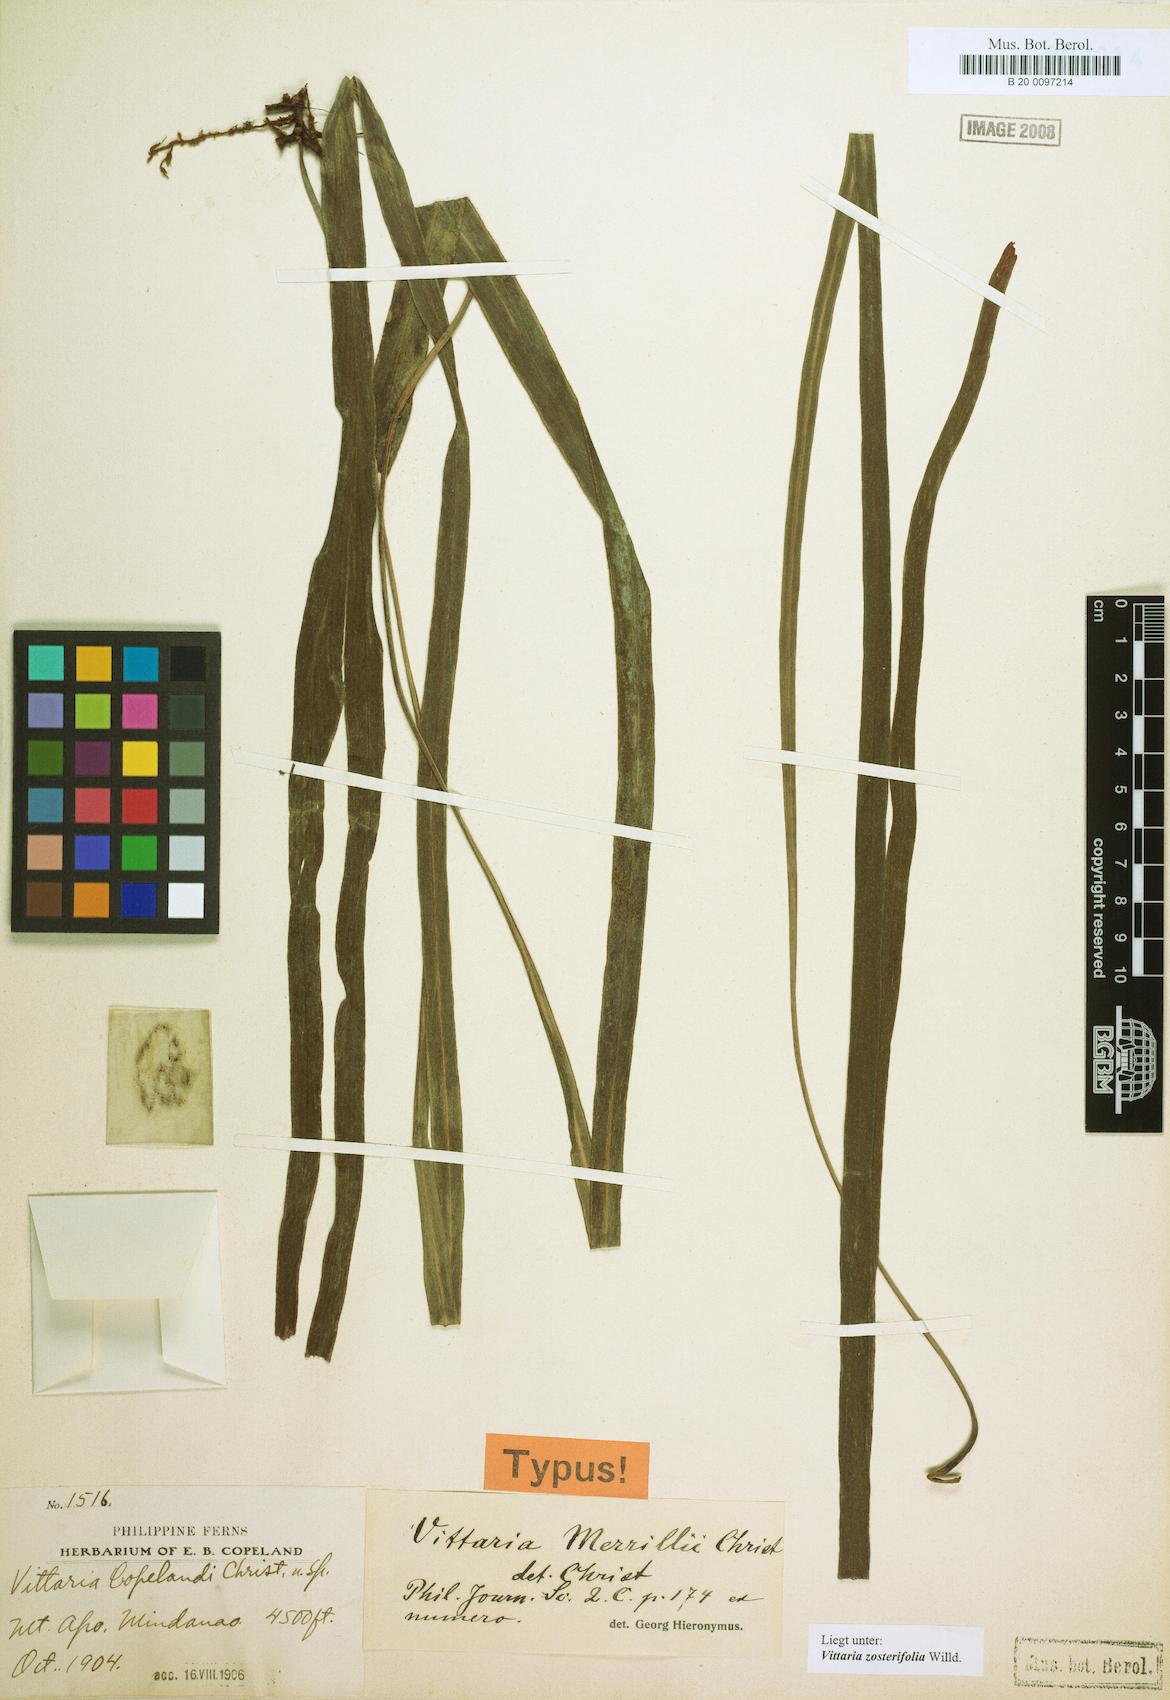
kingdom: Plantae
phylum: Tracheophyta
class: Polypodiopsida
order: Polypodiales
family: Pteridaceae
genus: Haplopteris
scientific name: Haplopteris zosterifolia
